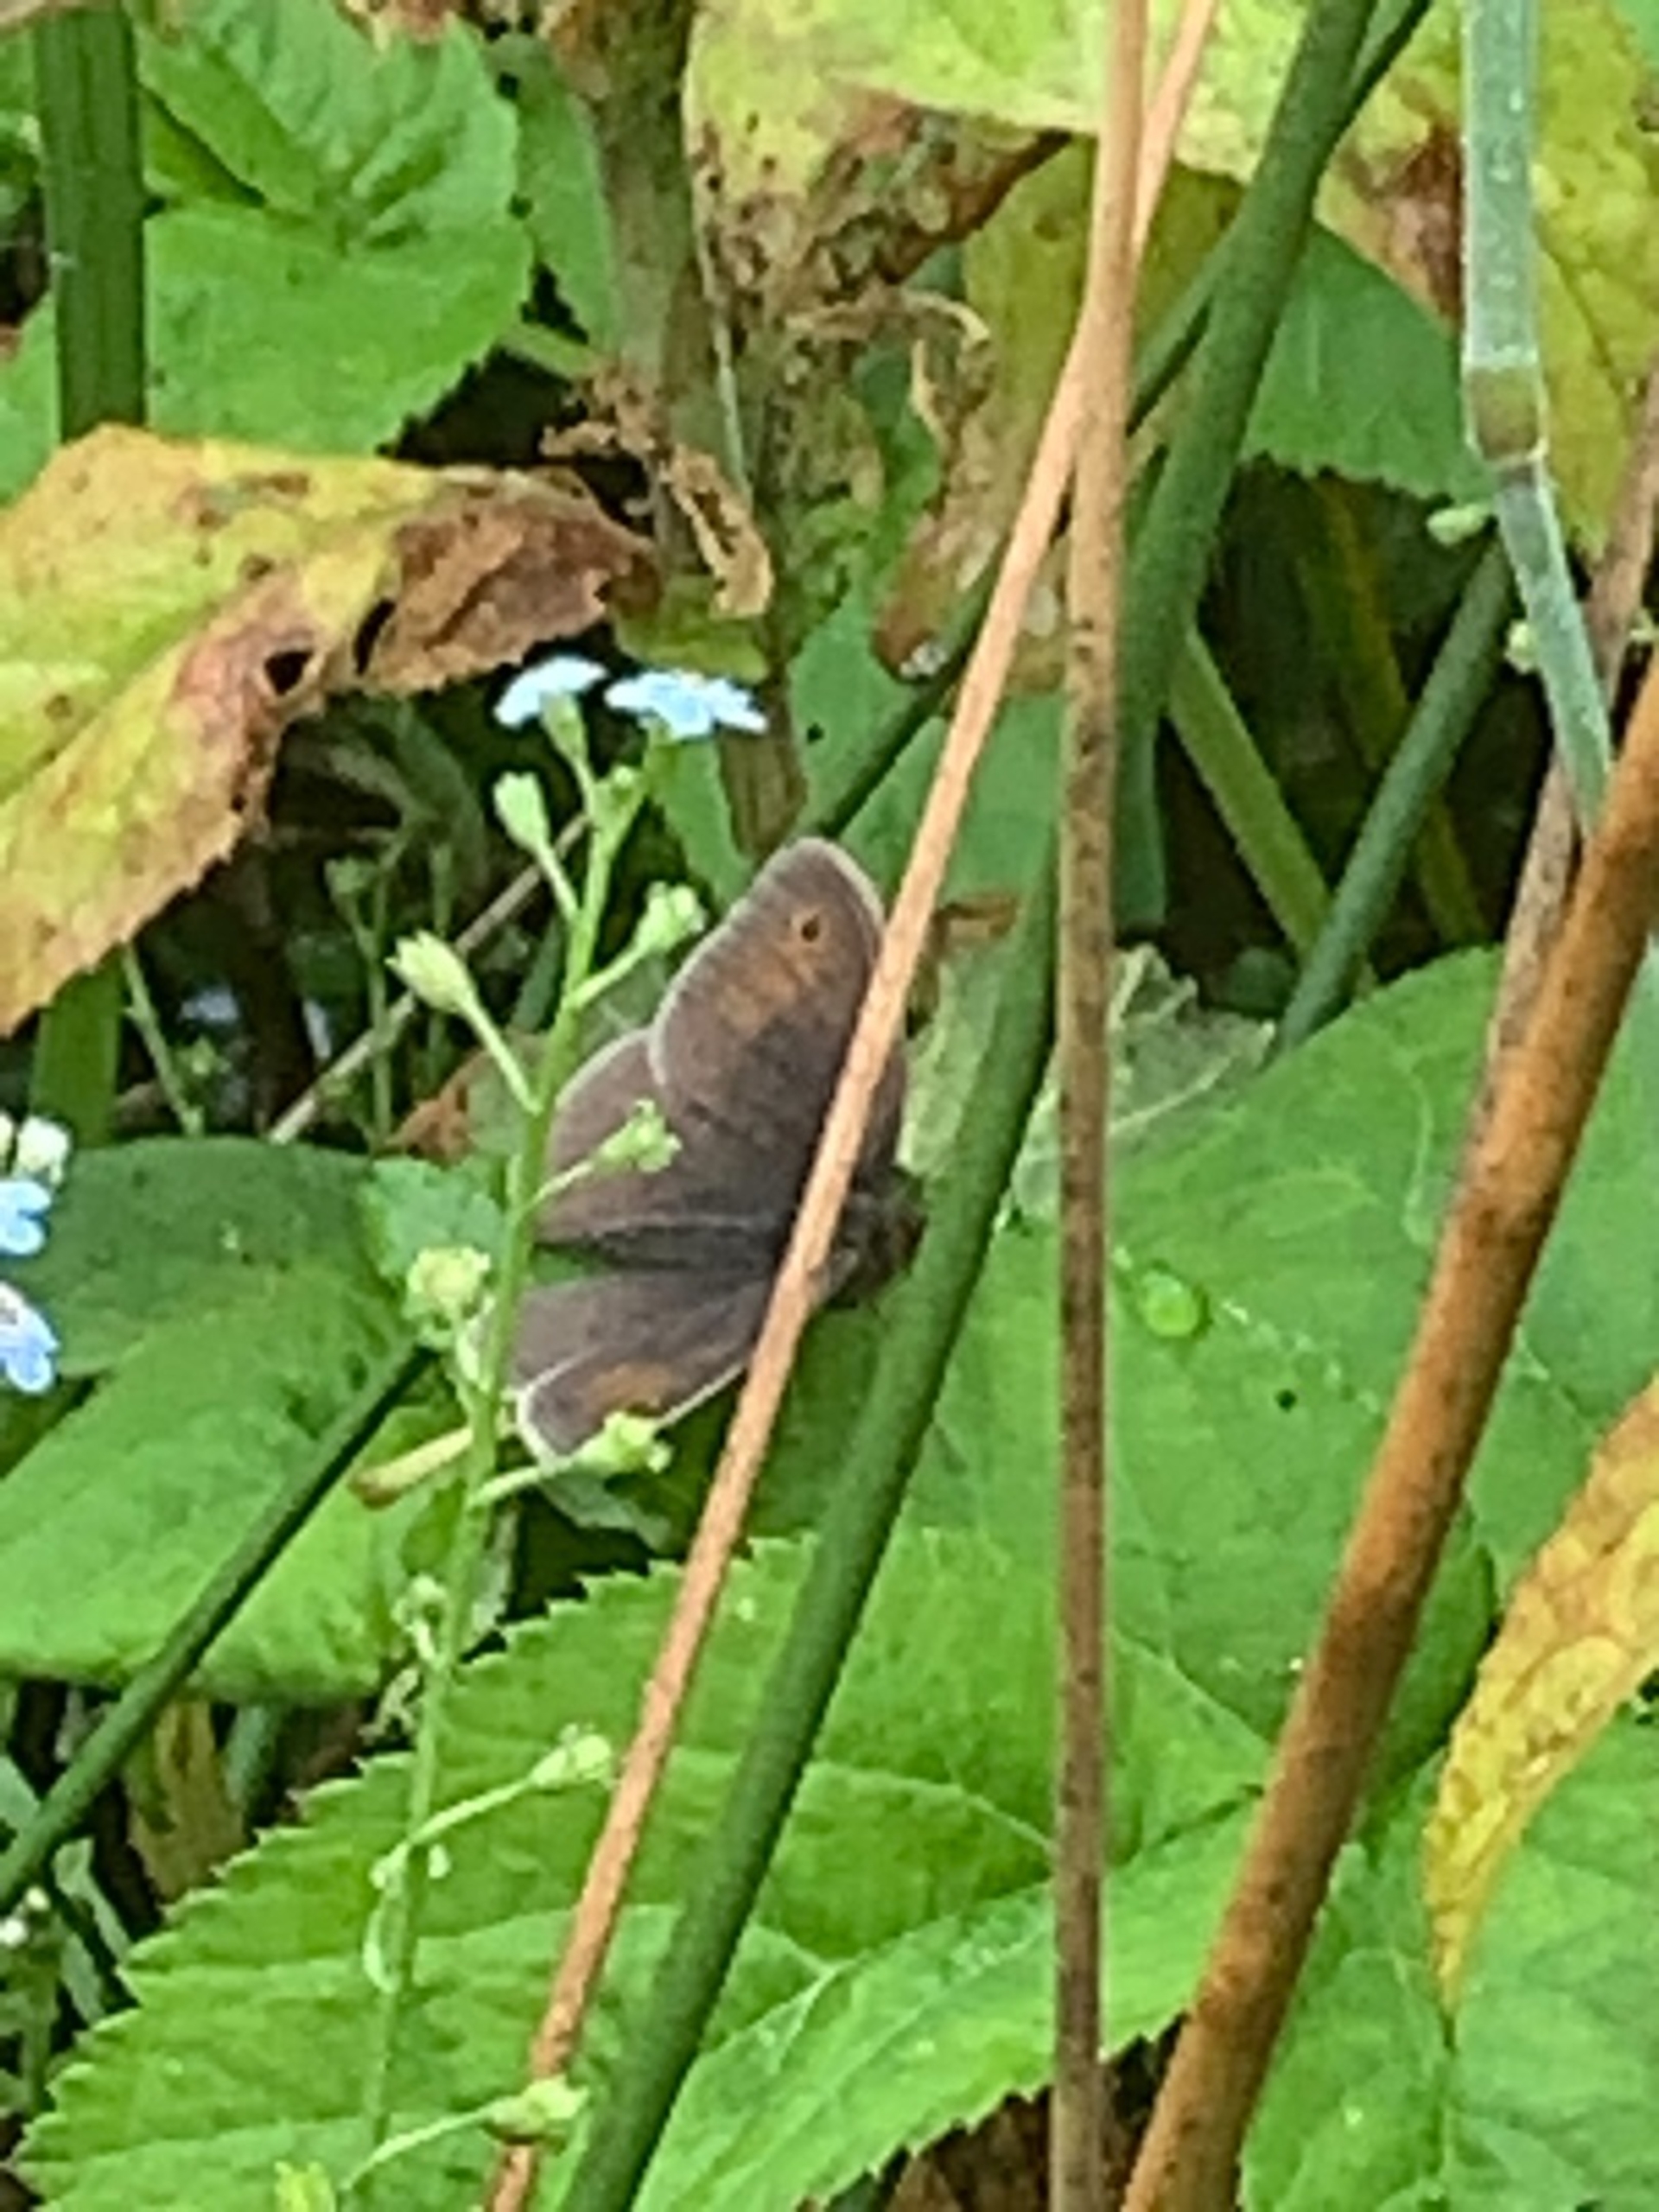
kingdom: Animalia
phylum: Arthropoda
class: Insecta
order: Lepidoptera
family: Nymphalidae
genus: Maniola
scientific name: Maniola jurtina
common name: Græsrandøje
